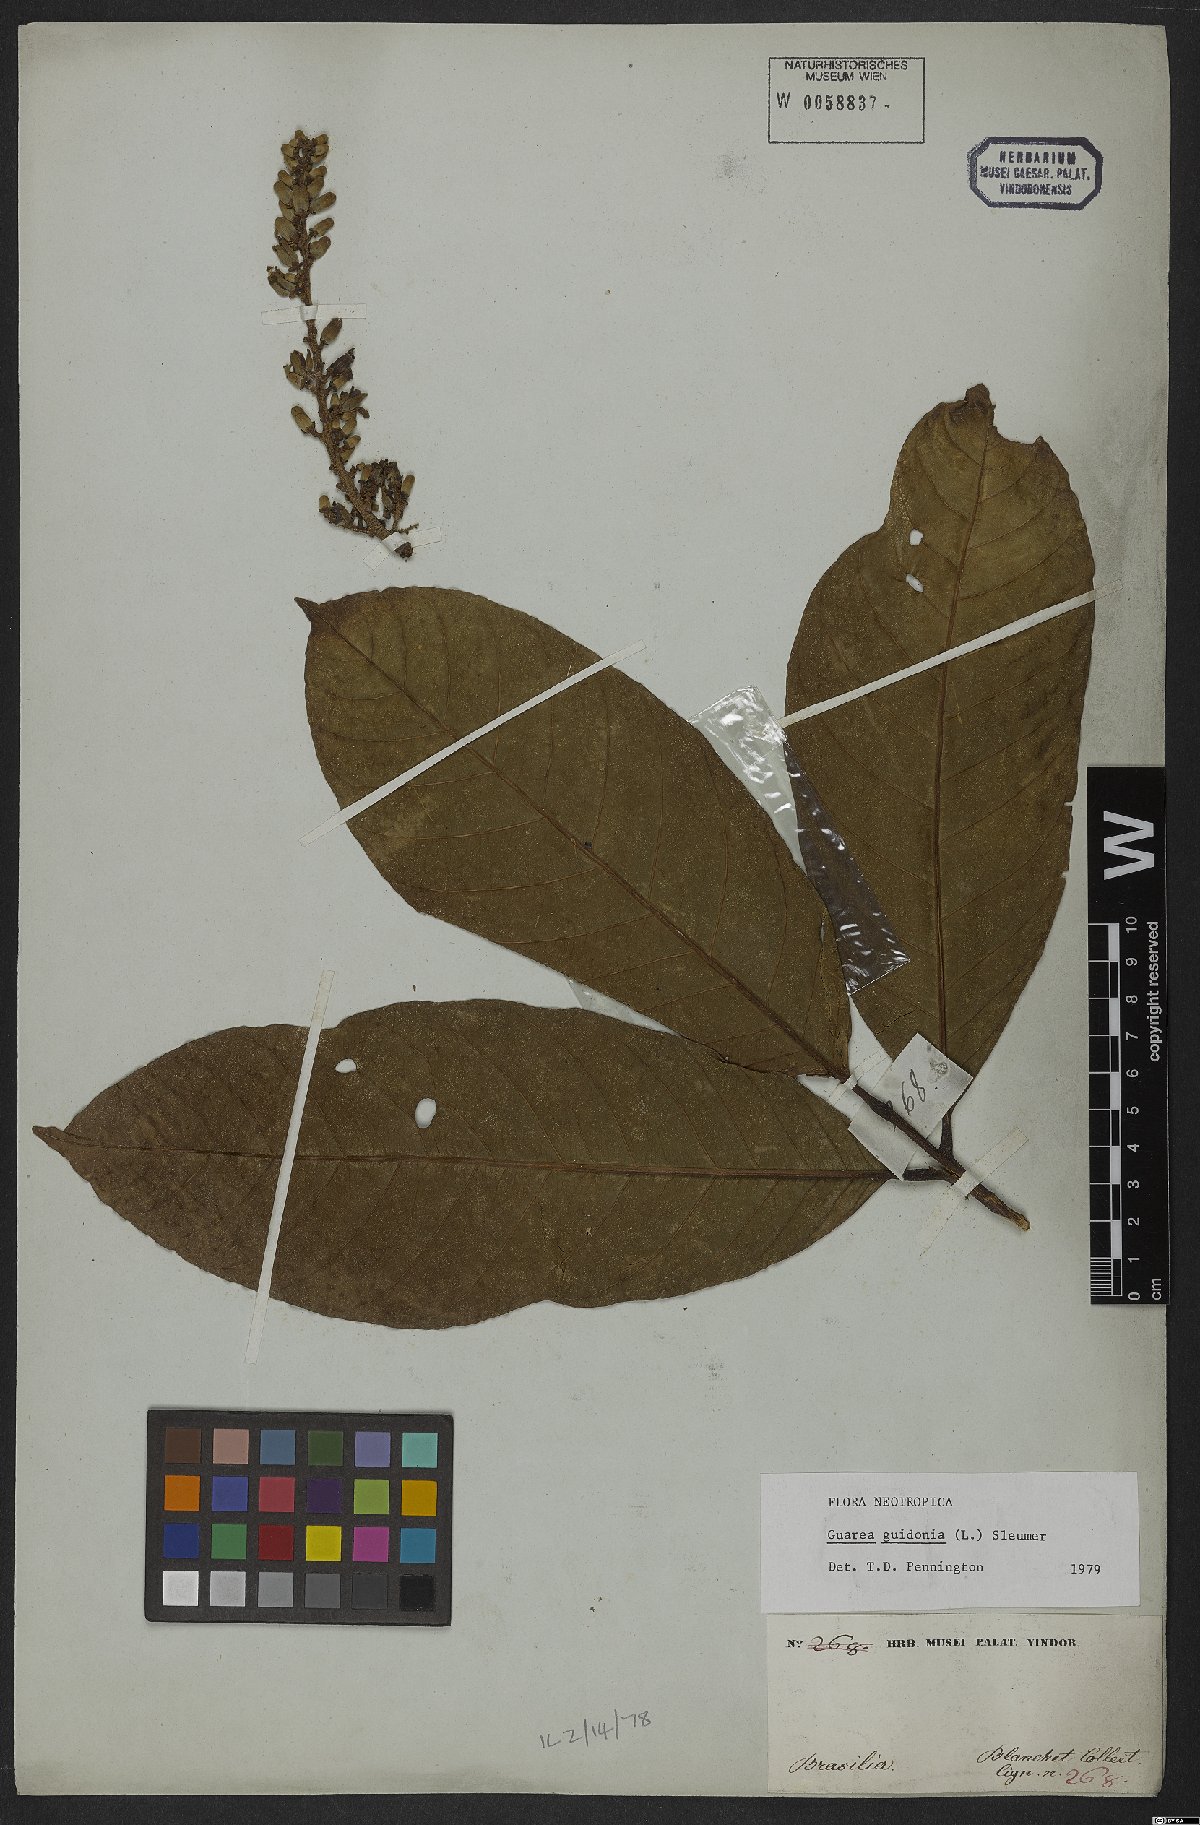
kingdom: Plantae
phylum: Tracheophyta
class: Magnoliopsida
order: Sapindales
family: Meliaceae
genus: Guarea
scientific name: Guarea guidonia
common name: American muskwood
